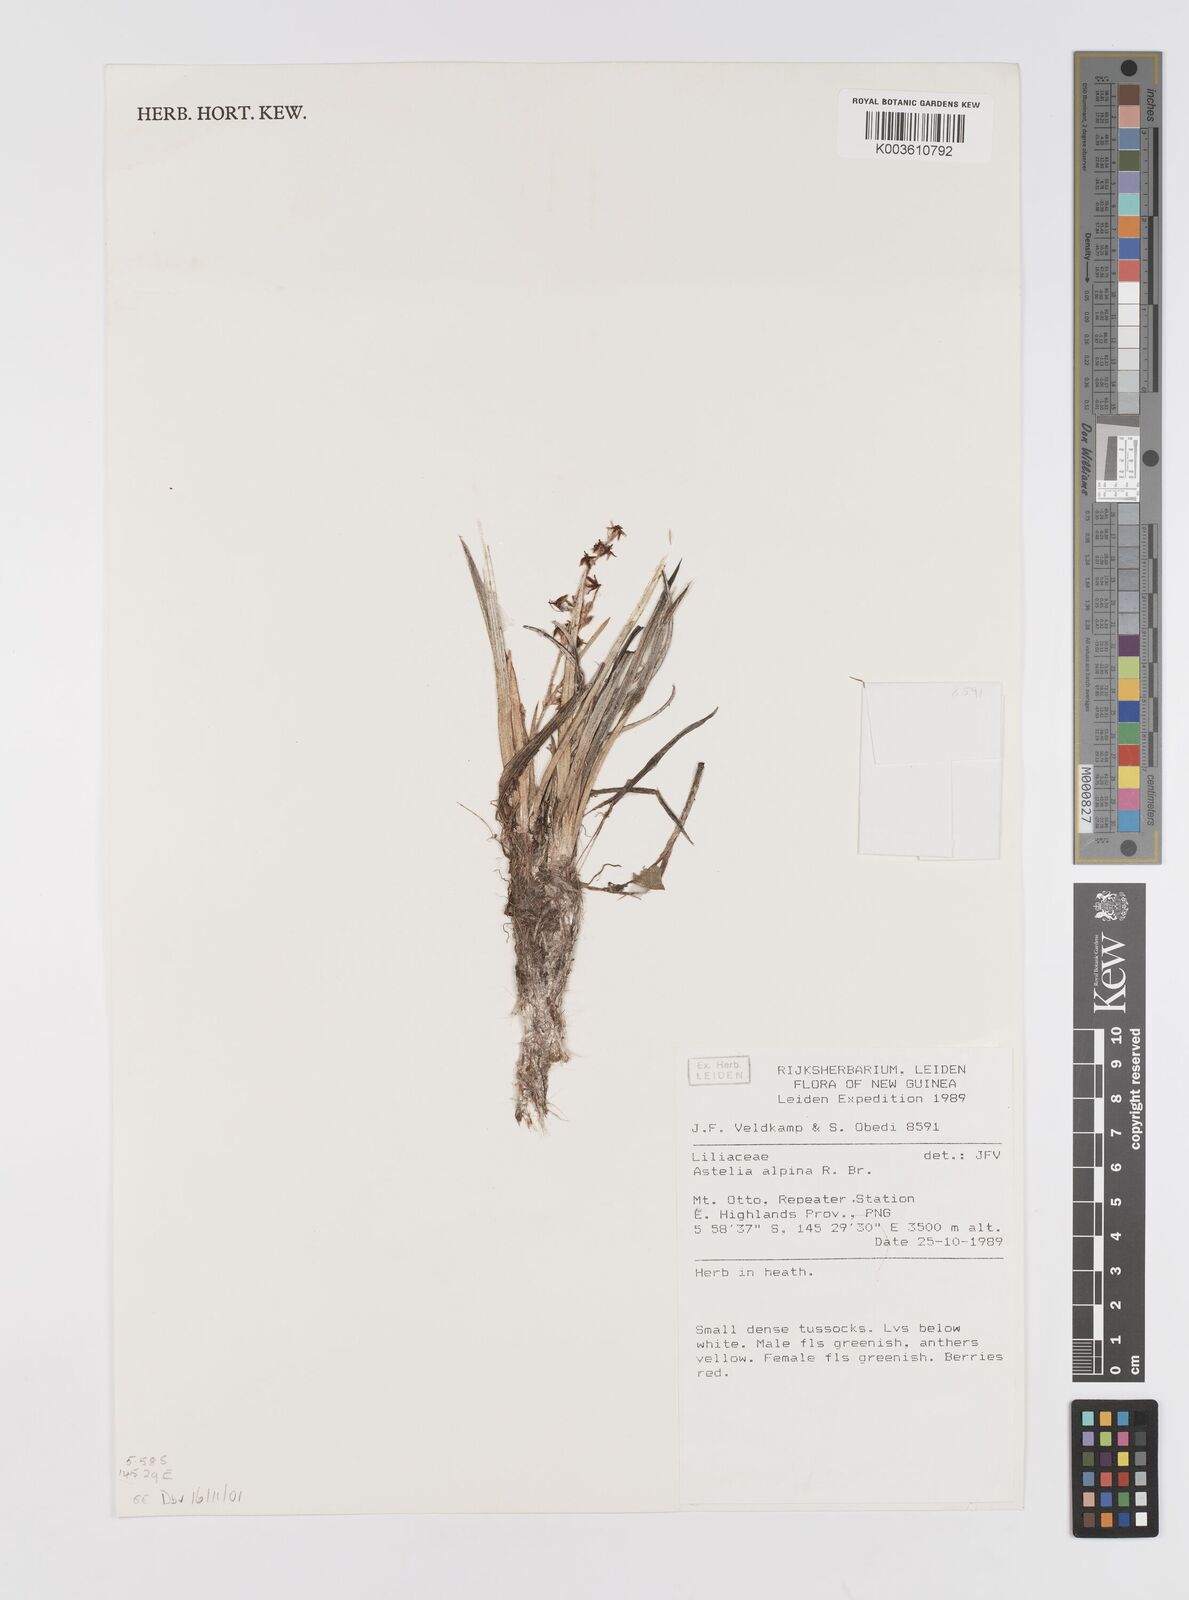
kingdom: Plantae
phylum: Tracheophyta
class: Liliopsida
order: Asparagales
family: Asteliaceae
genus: Astelia
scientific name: Astelia alpina
